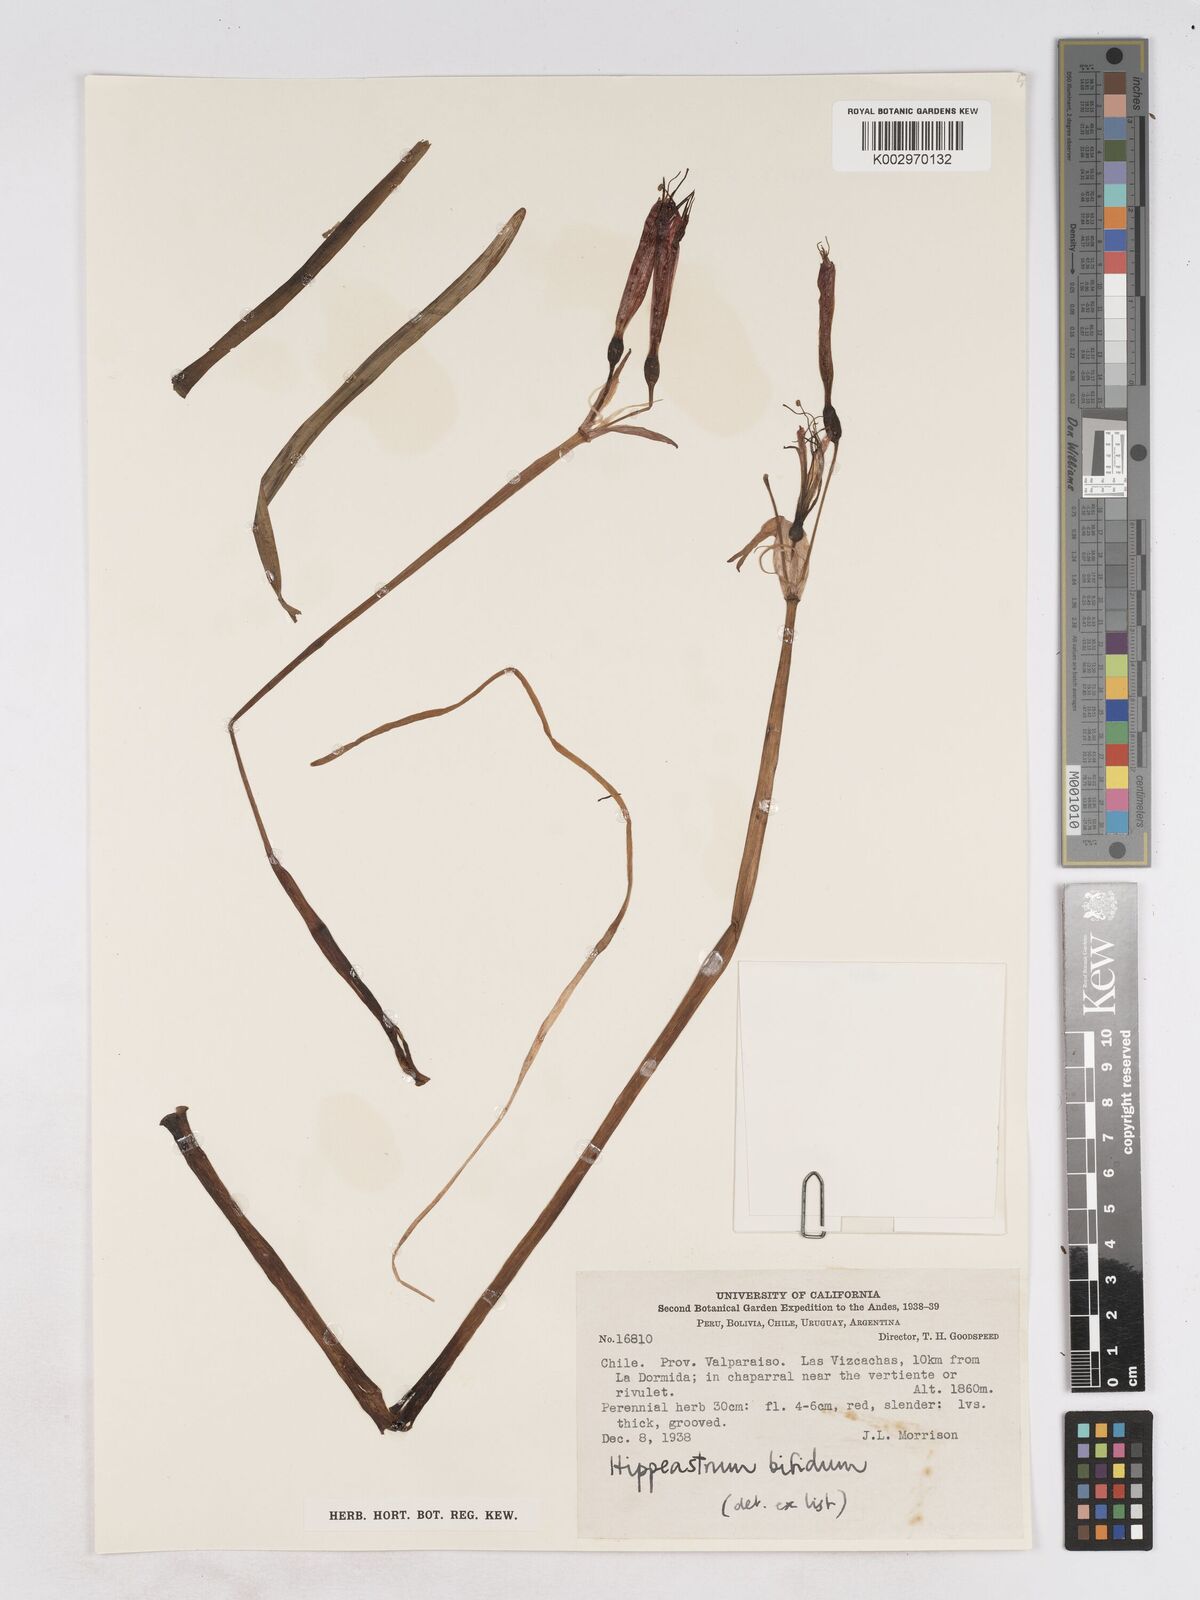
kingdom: Plantae
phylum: Tracheophyta
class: Liliopsida
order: Asparagales
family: Amaryllidaceae
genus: Zephyranthes
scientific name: Zephyranthes bifida
